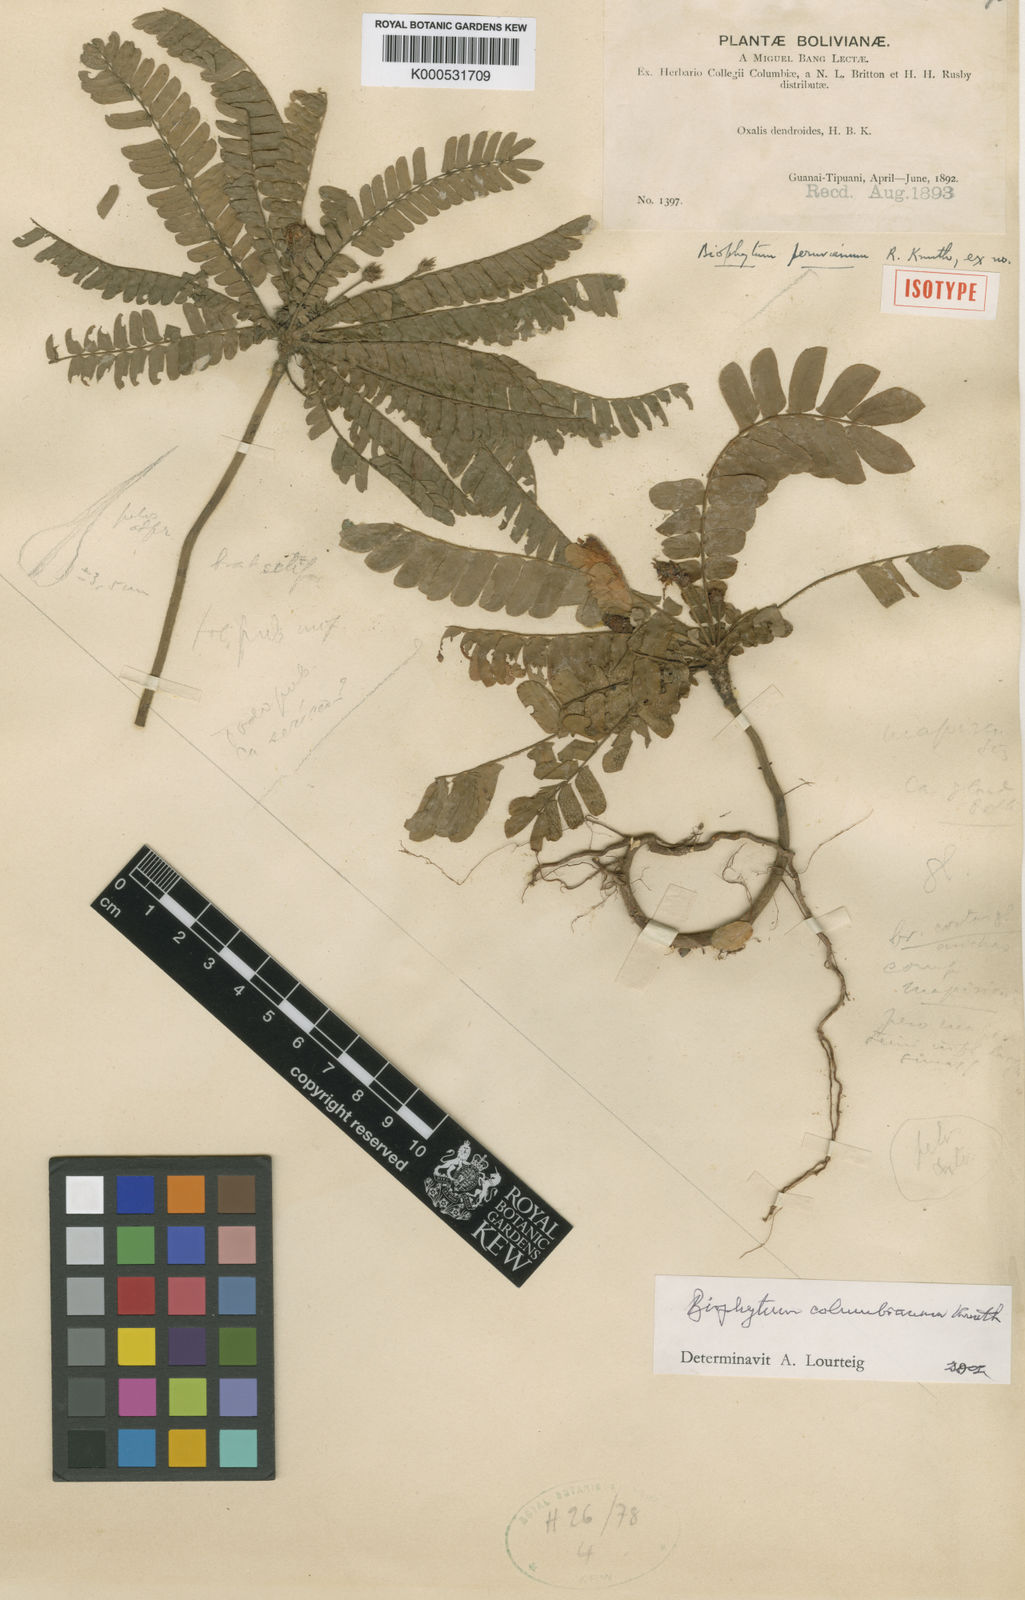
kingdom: Plantae
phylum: Tracheophyta
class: Magnoliopsida
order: Oxalidales
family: Oxalidaceae
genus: Biophytum
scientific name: Biophytum columbianum
